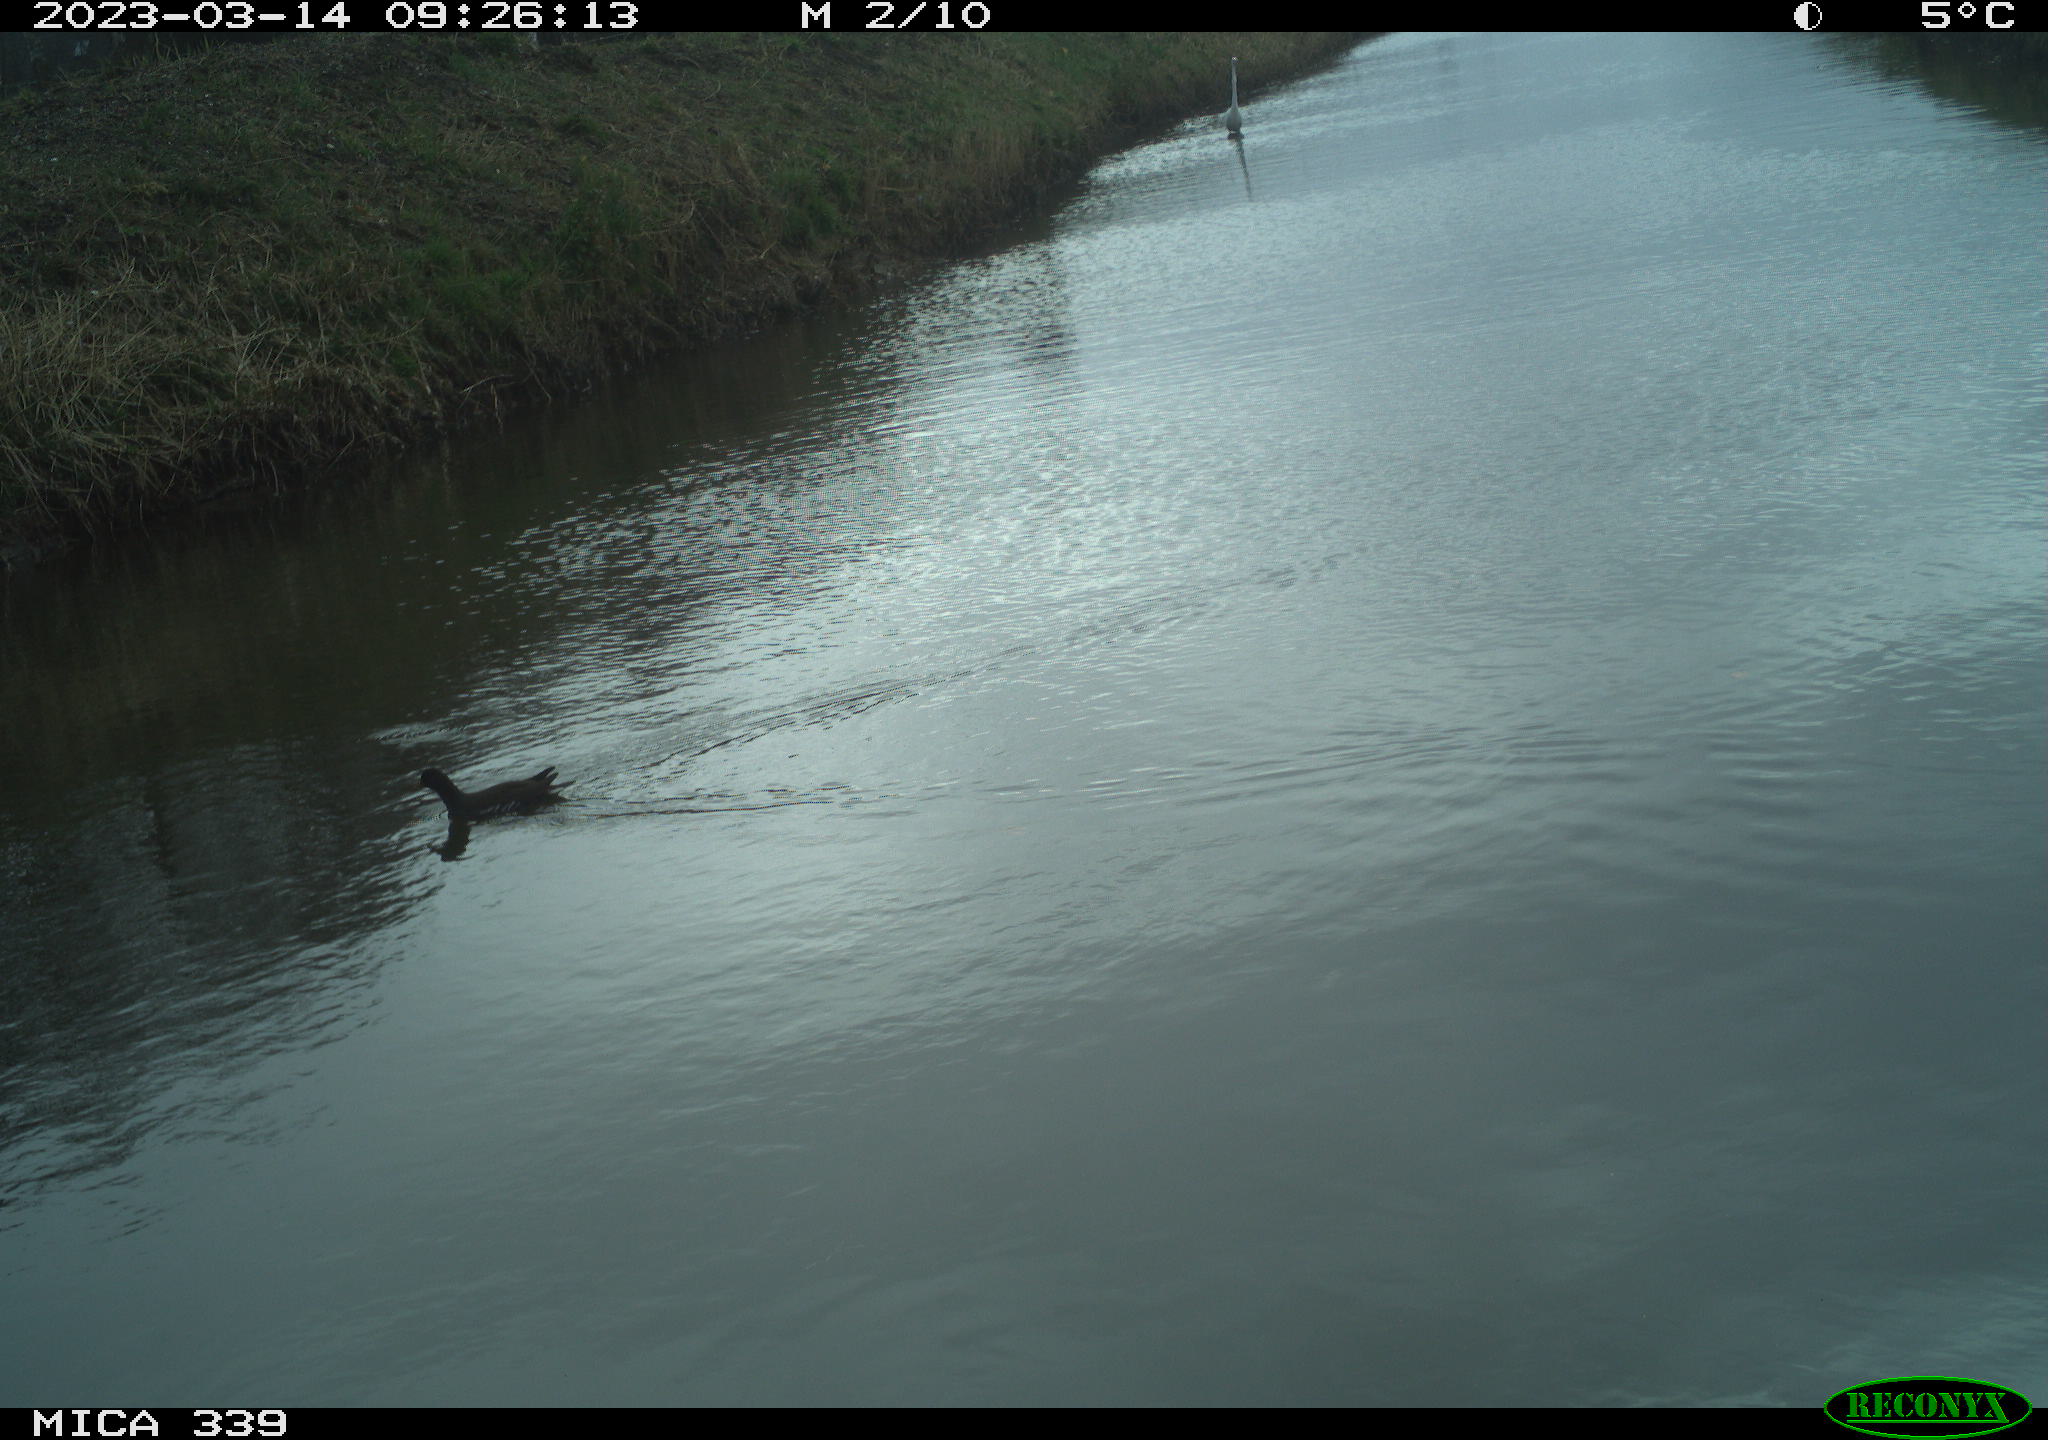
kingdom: Animalia
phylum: Chordata
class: Aves
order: Gruiformes
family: Rallidae
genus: Gallinula
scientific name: Gallinula chloropus
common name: Common moorhen
